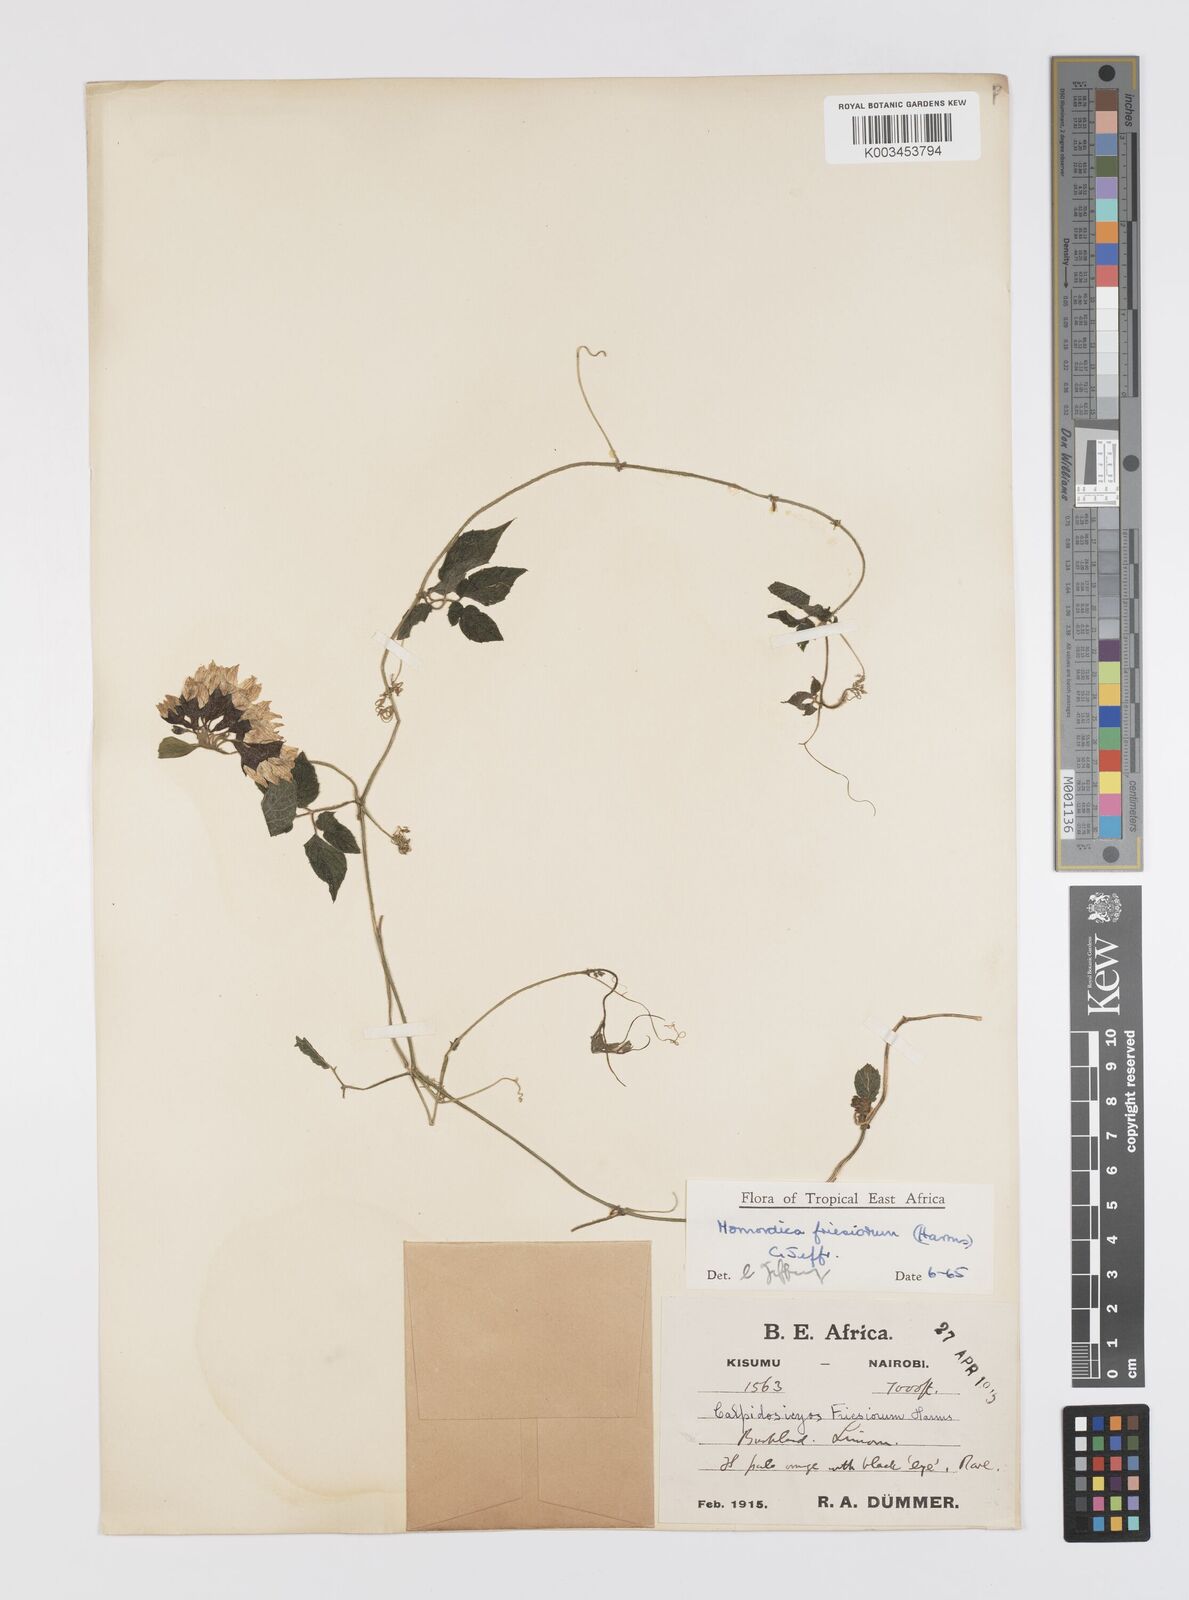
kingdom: Plantae
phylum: Tracheophyta
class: Magnoliopsida
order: Cucurbitales
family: Cucurbitaceae
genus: Momordica
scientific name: Momordica friesiorum
